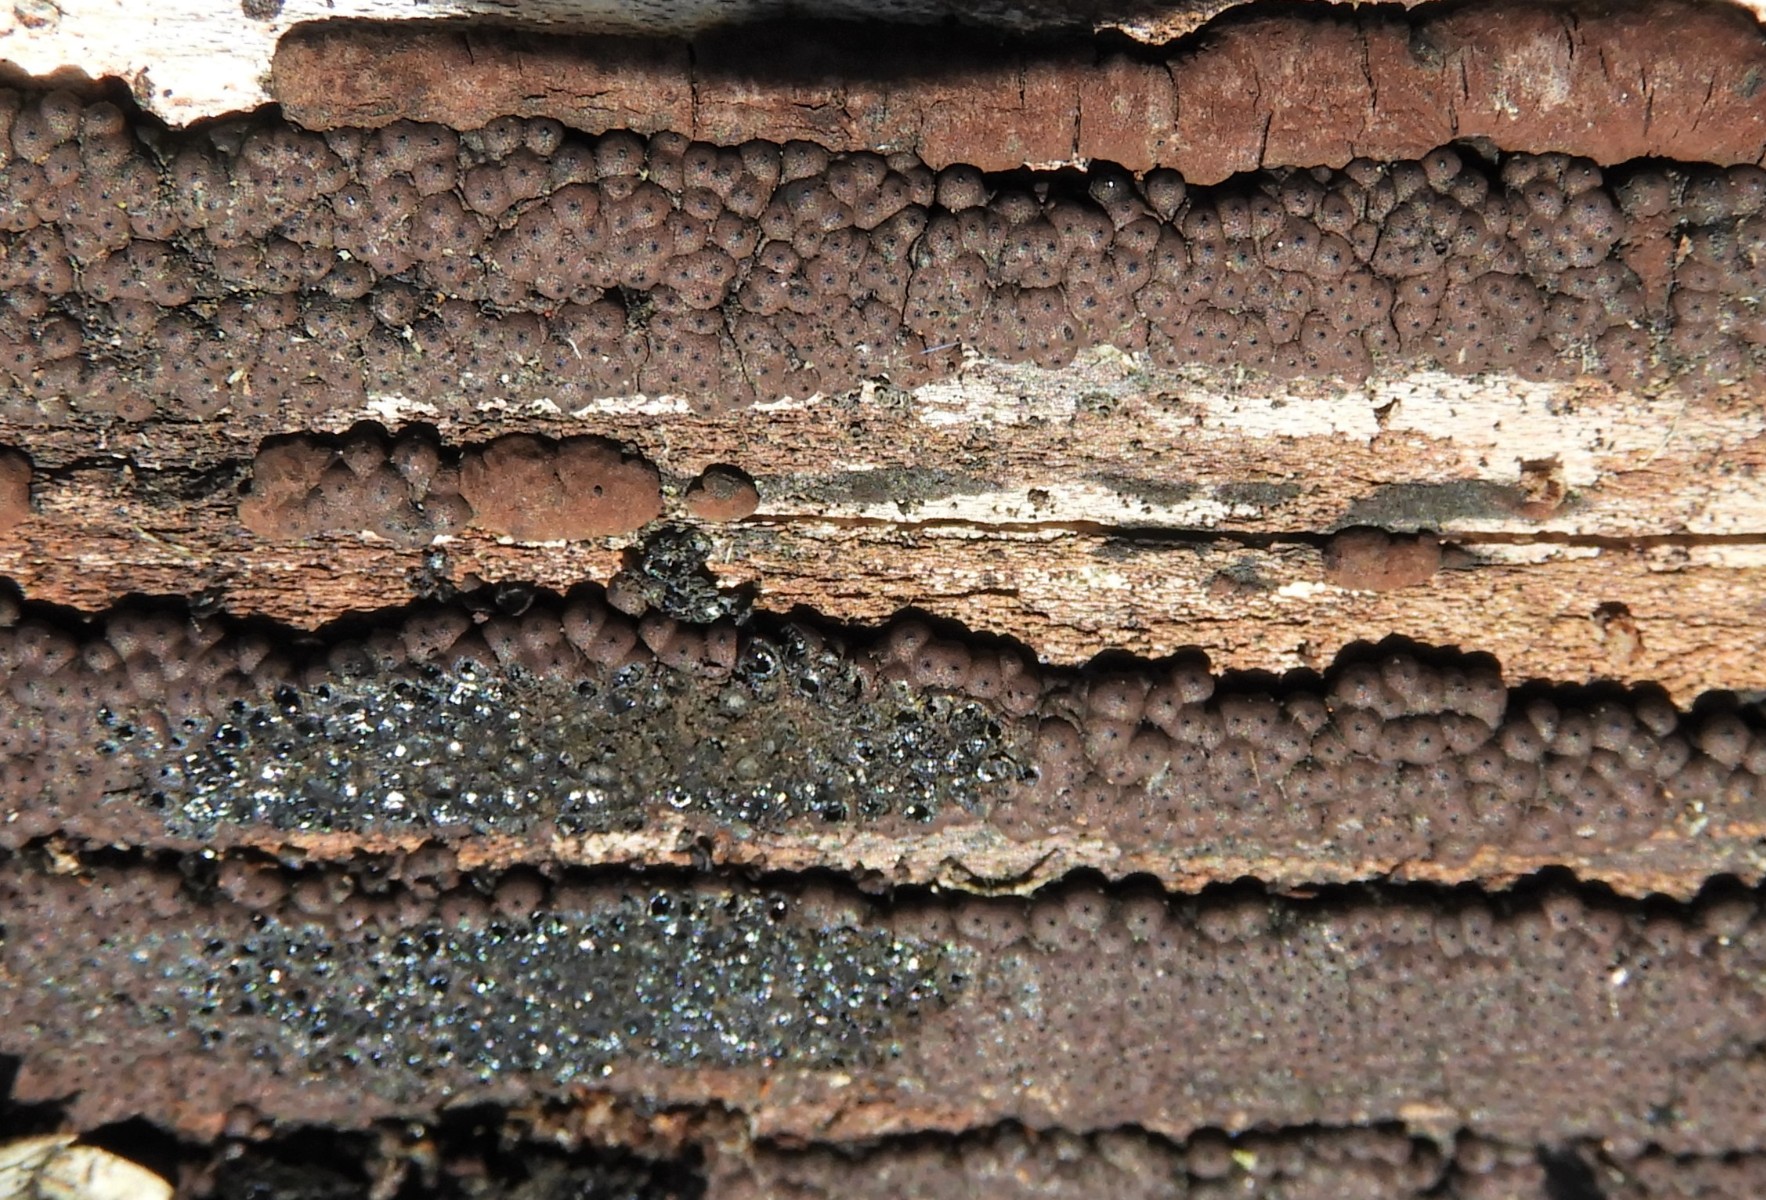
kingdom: Fungi
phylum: Ascomycota
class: Sordariomycetes
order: Xylariales
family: Hypoxylaceae
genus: Jackrogersella
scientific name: Jackrogersella
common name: kulbær
